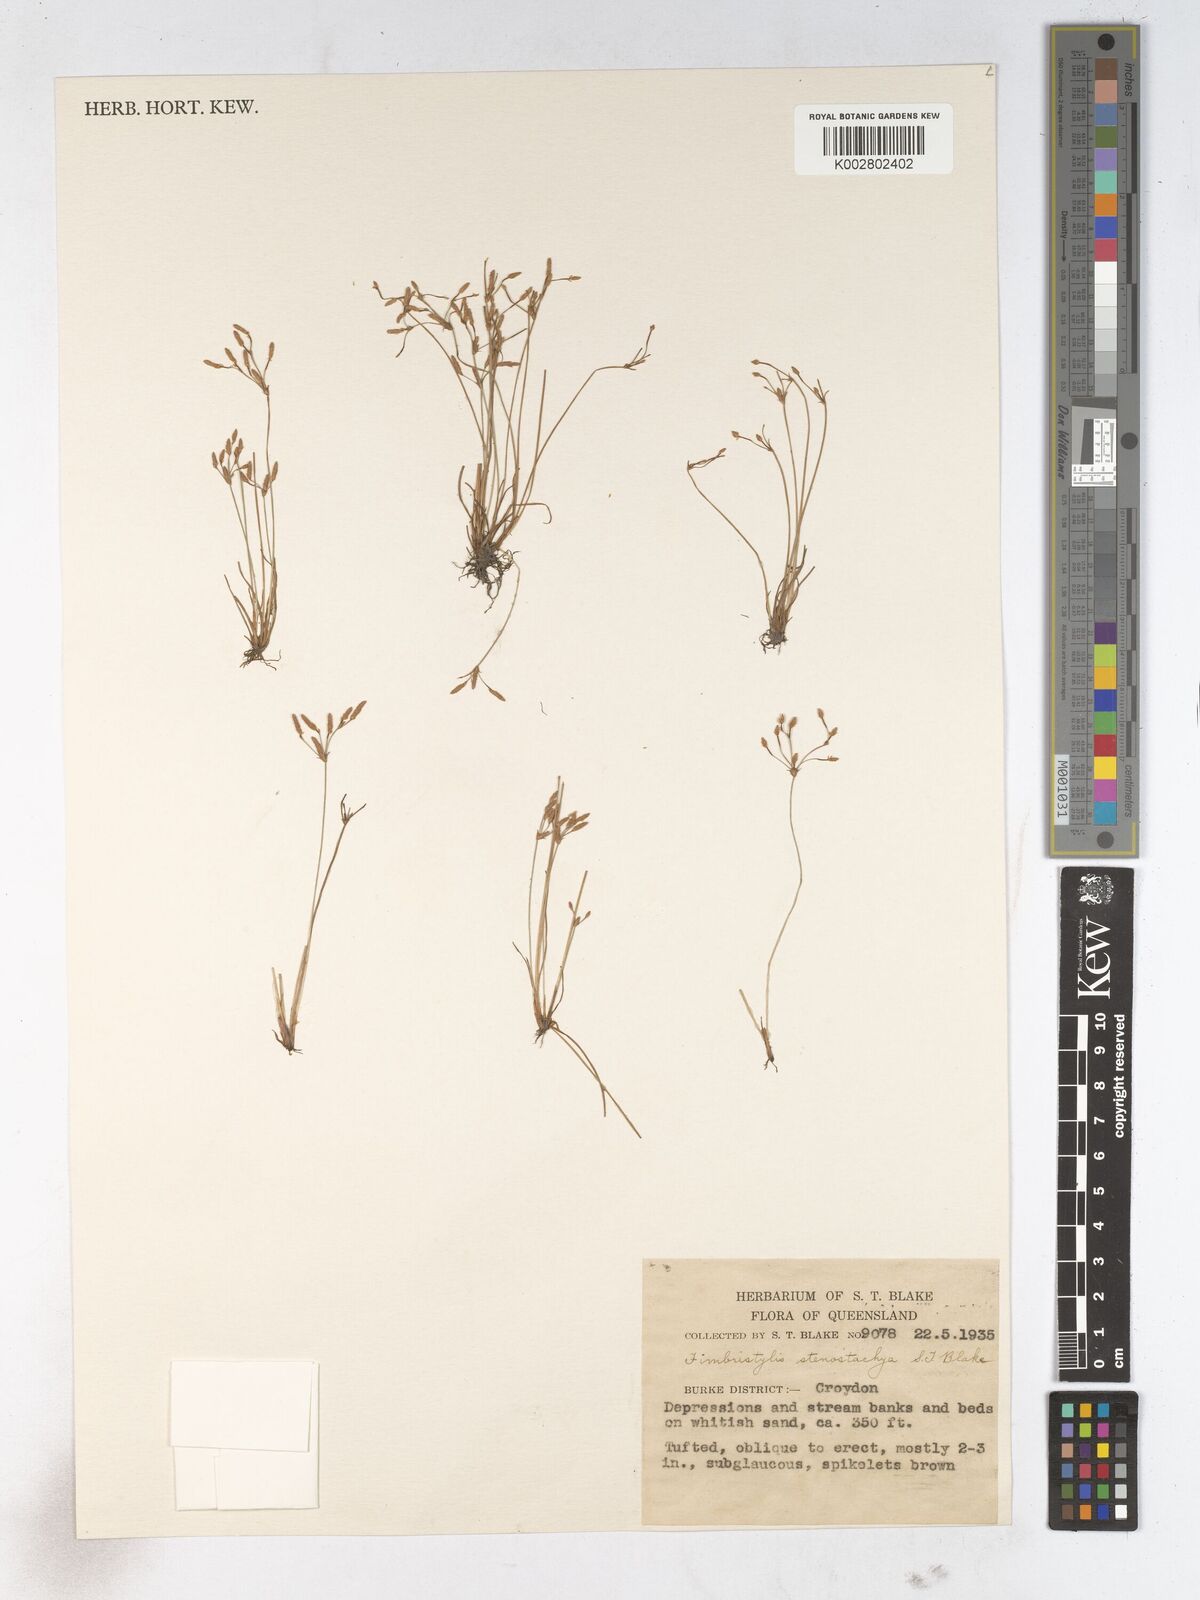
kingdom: Plantae
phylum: Tracheophyta
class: Liliopsida
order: Poales
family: Cyperaceae
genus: Fimbristylis
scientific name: Fimbristylis stenostachya
